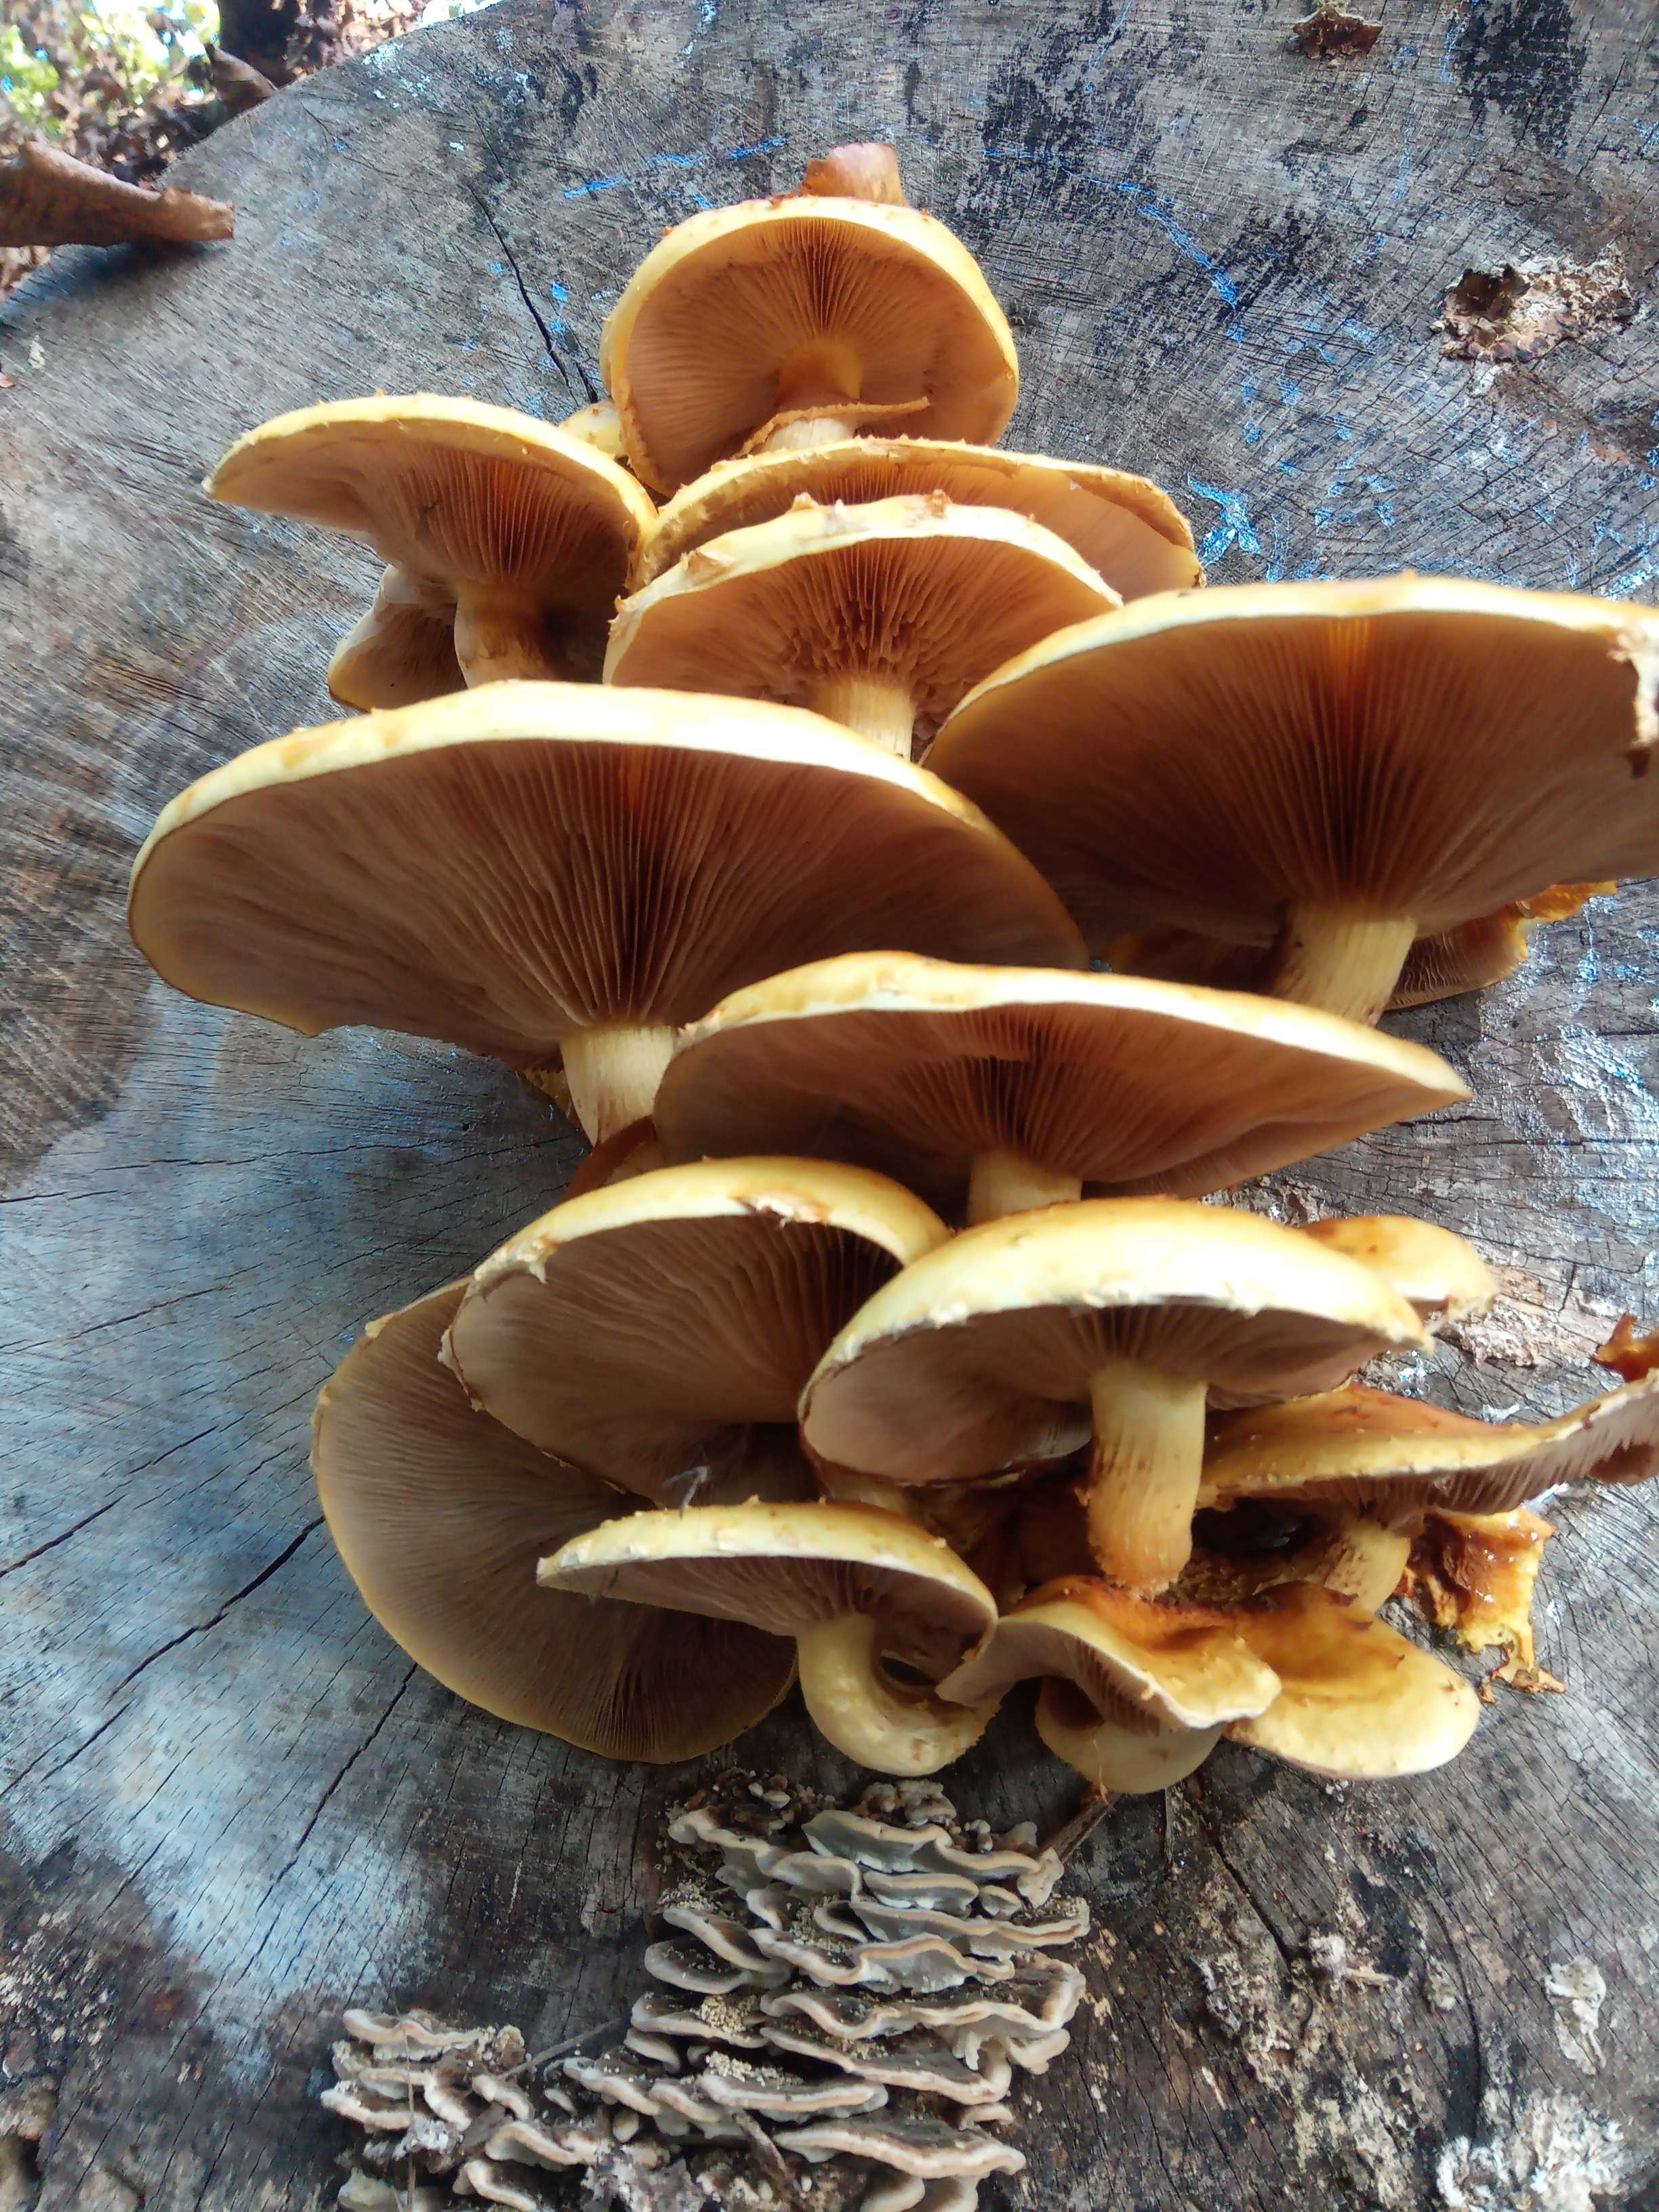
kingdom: Fungi
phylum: Basidiomycota
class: Agaricomycetes
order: Agaricales
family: Strophariaceae
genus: Pholiota
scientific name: Pholiota adiposa
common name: højtsiddende skælhat
